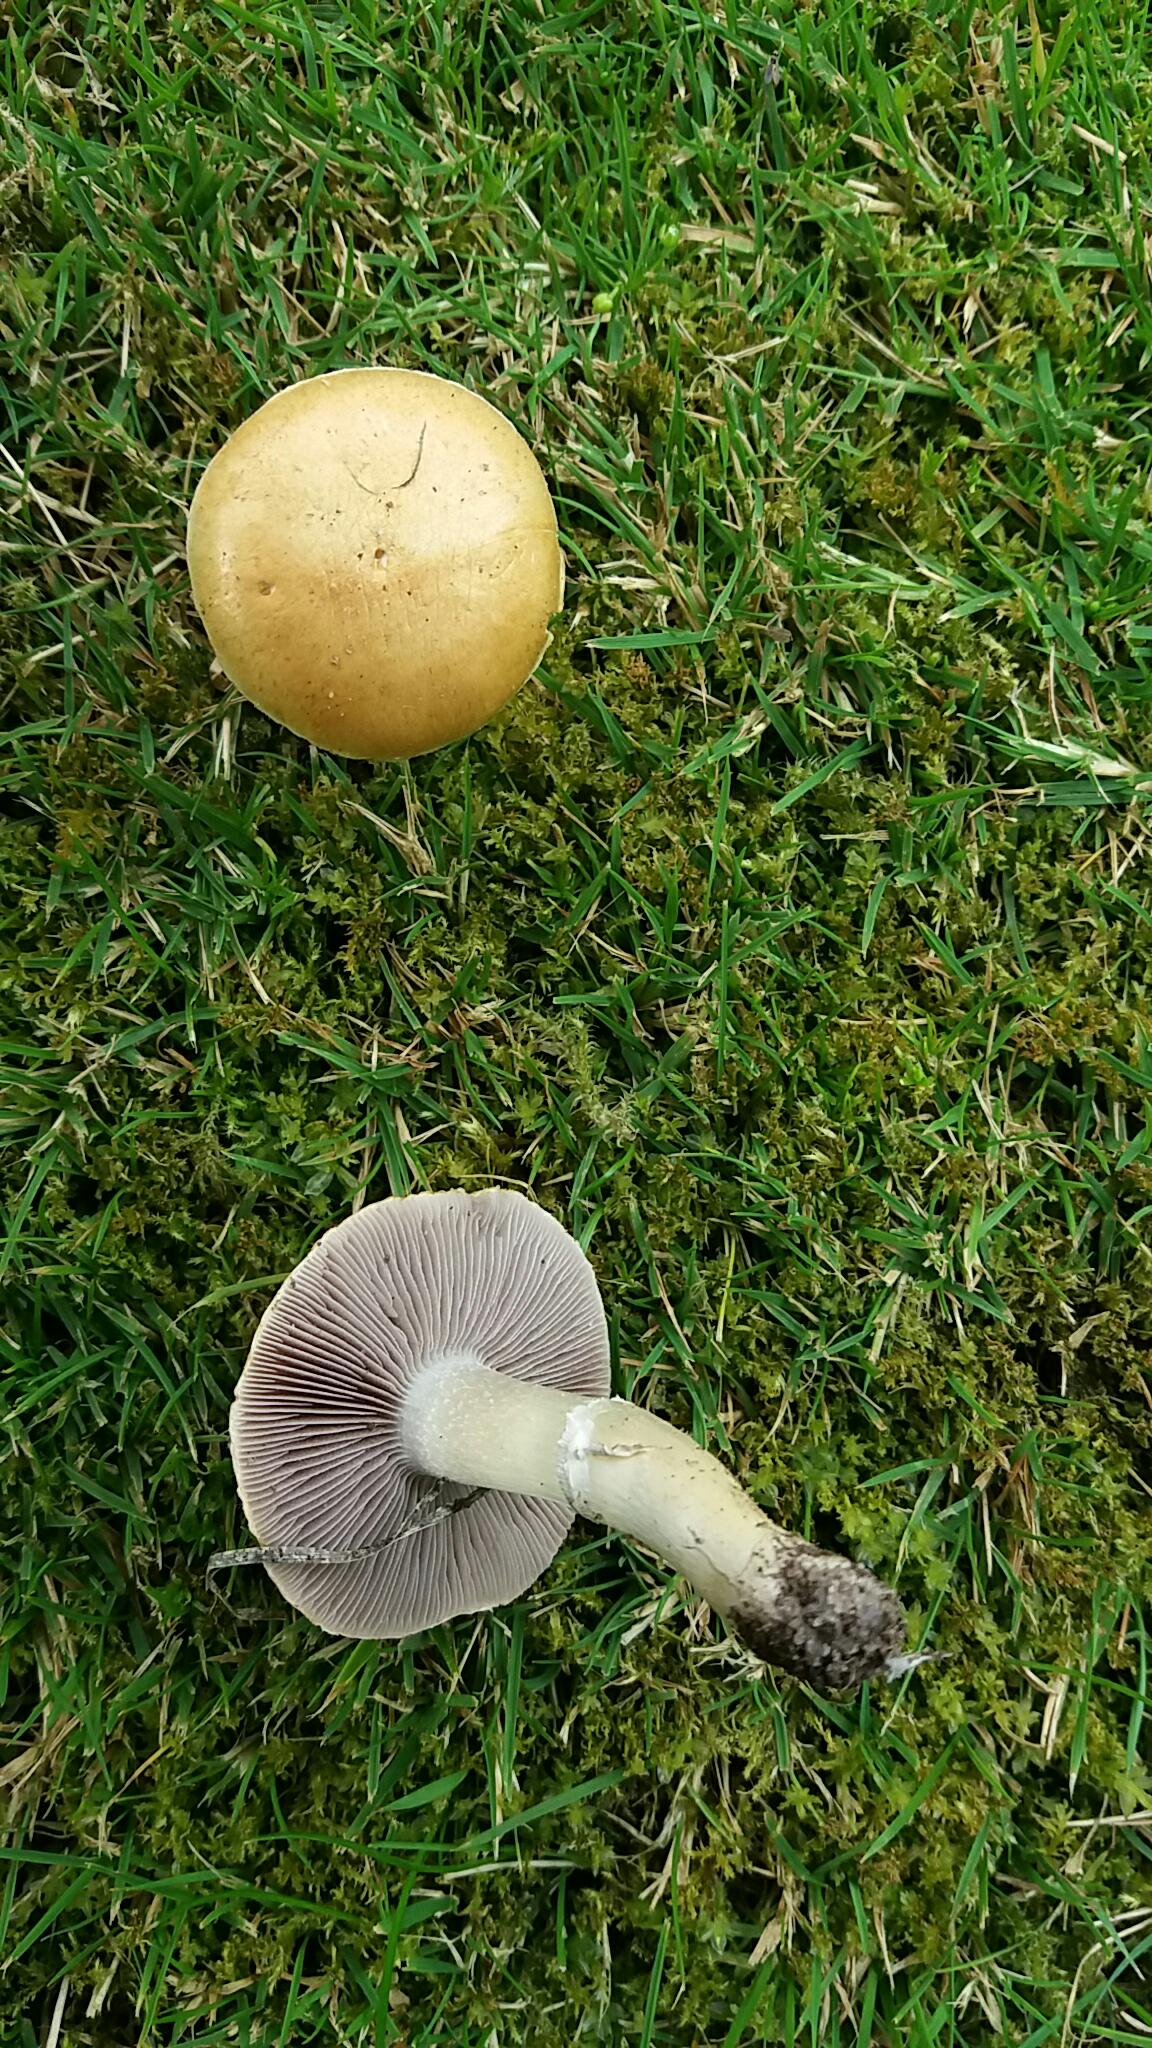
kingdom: Fungi
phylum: Basidiomycota
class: Agaricomycetes
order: Agaricales
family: Hymenogastraceae
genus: Psilocybe
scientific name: Psilocybe coronilla
